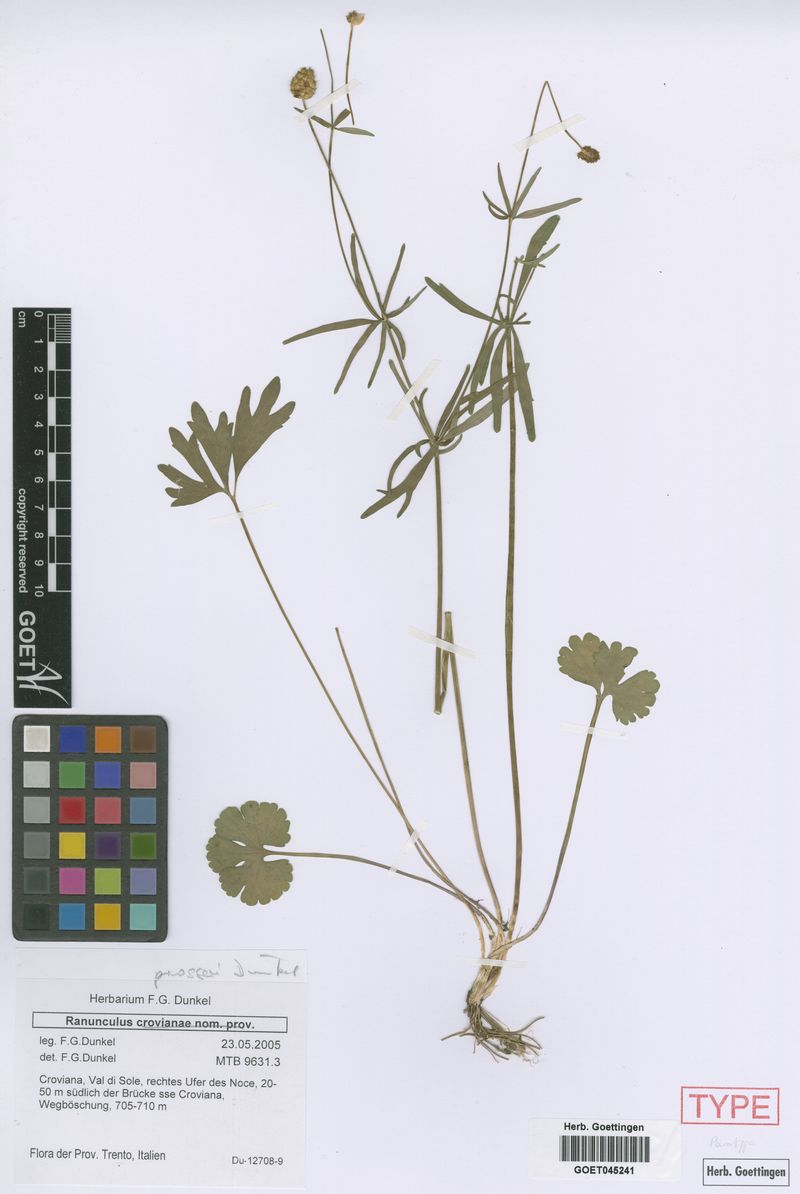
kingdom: Plantae
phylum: Tracheophyta
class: Magnoliopsida
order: Ranunculales
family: Ranunculaceae
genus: Ranunculus
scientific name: Ranunculus prosseri
